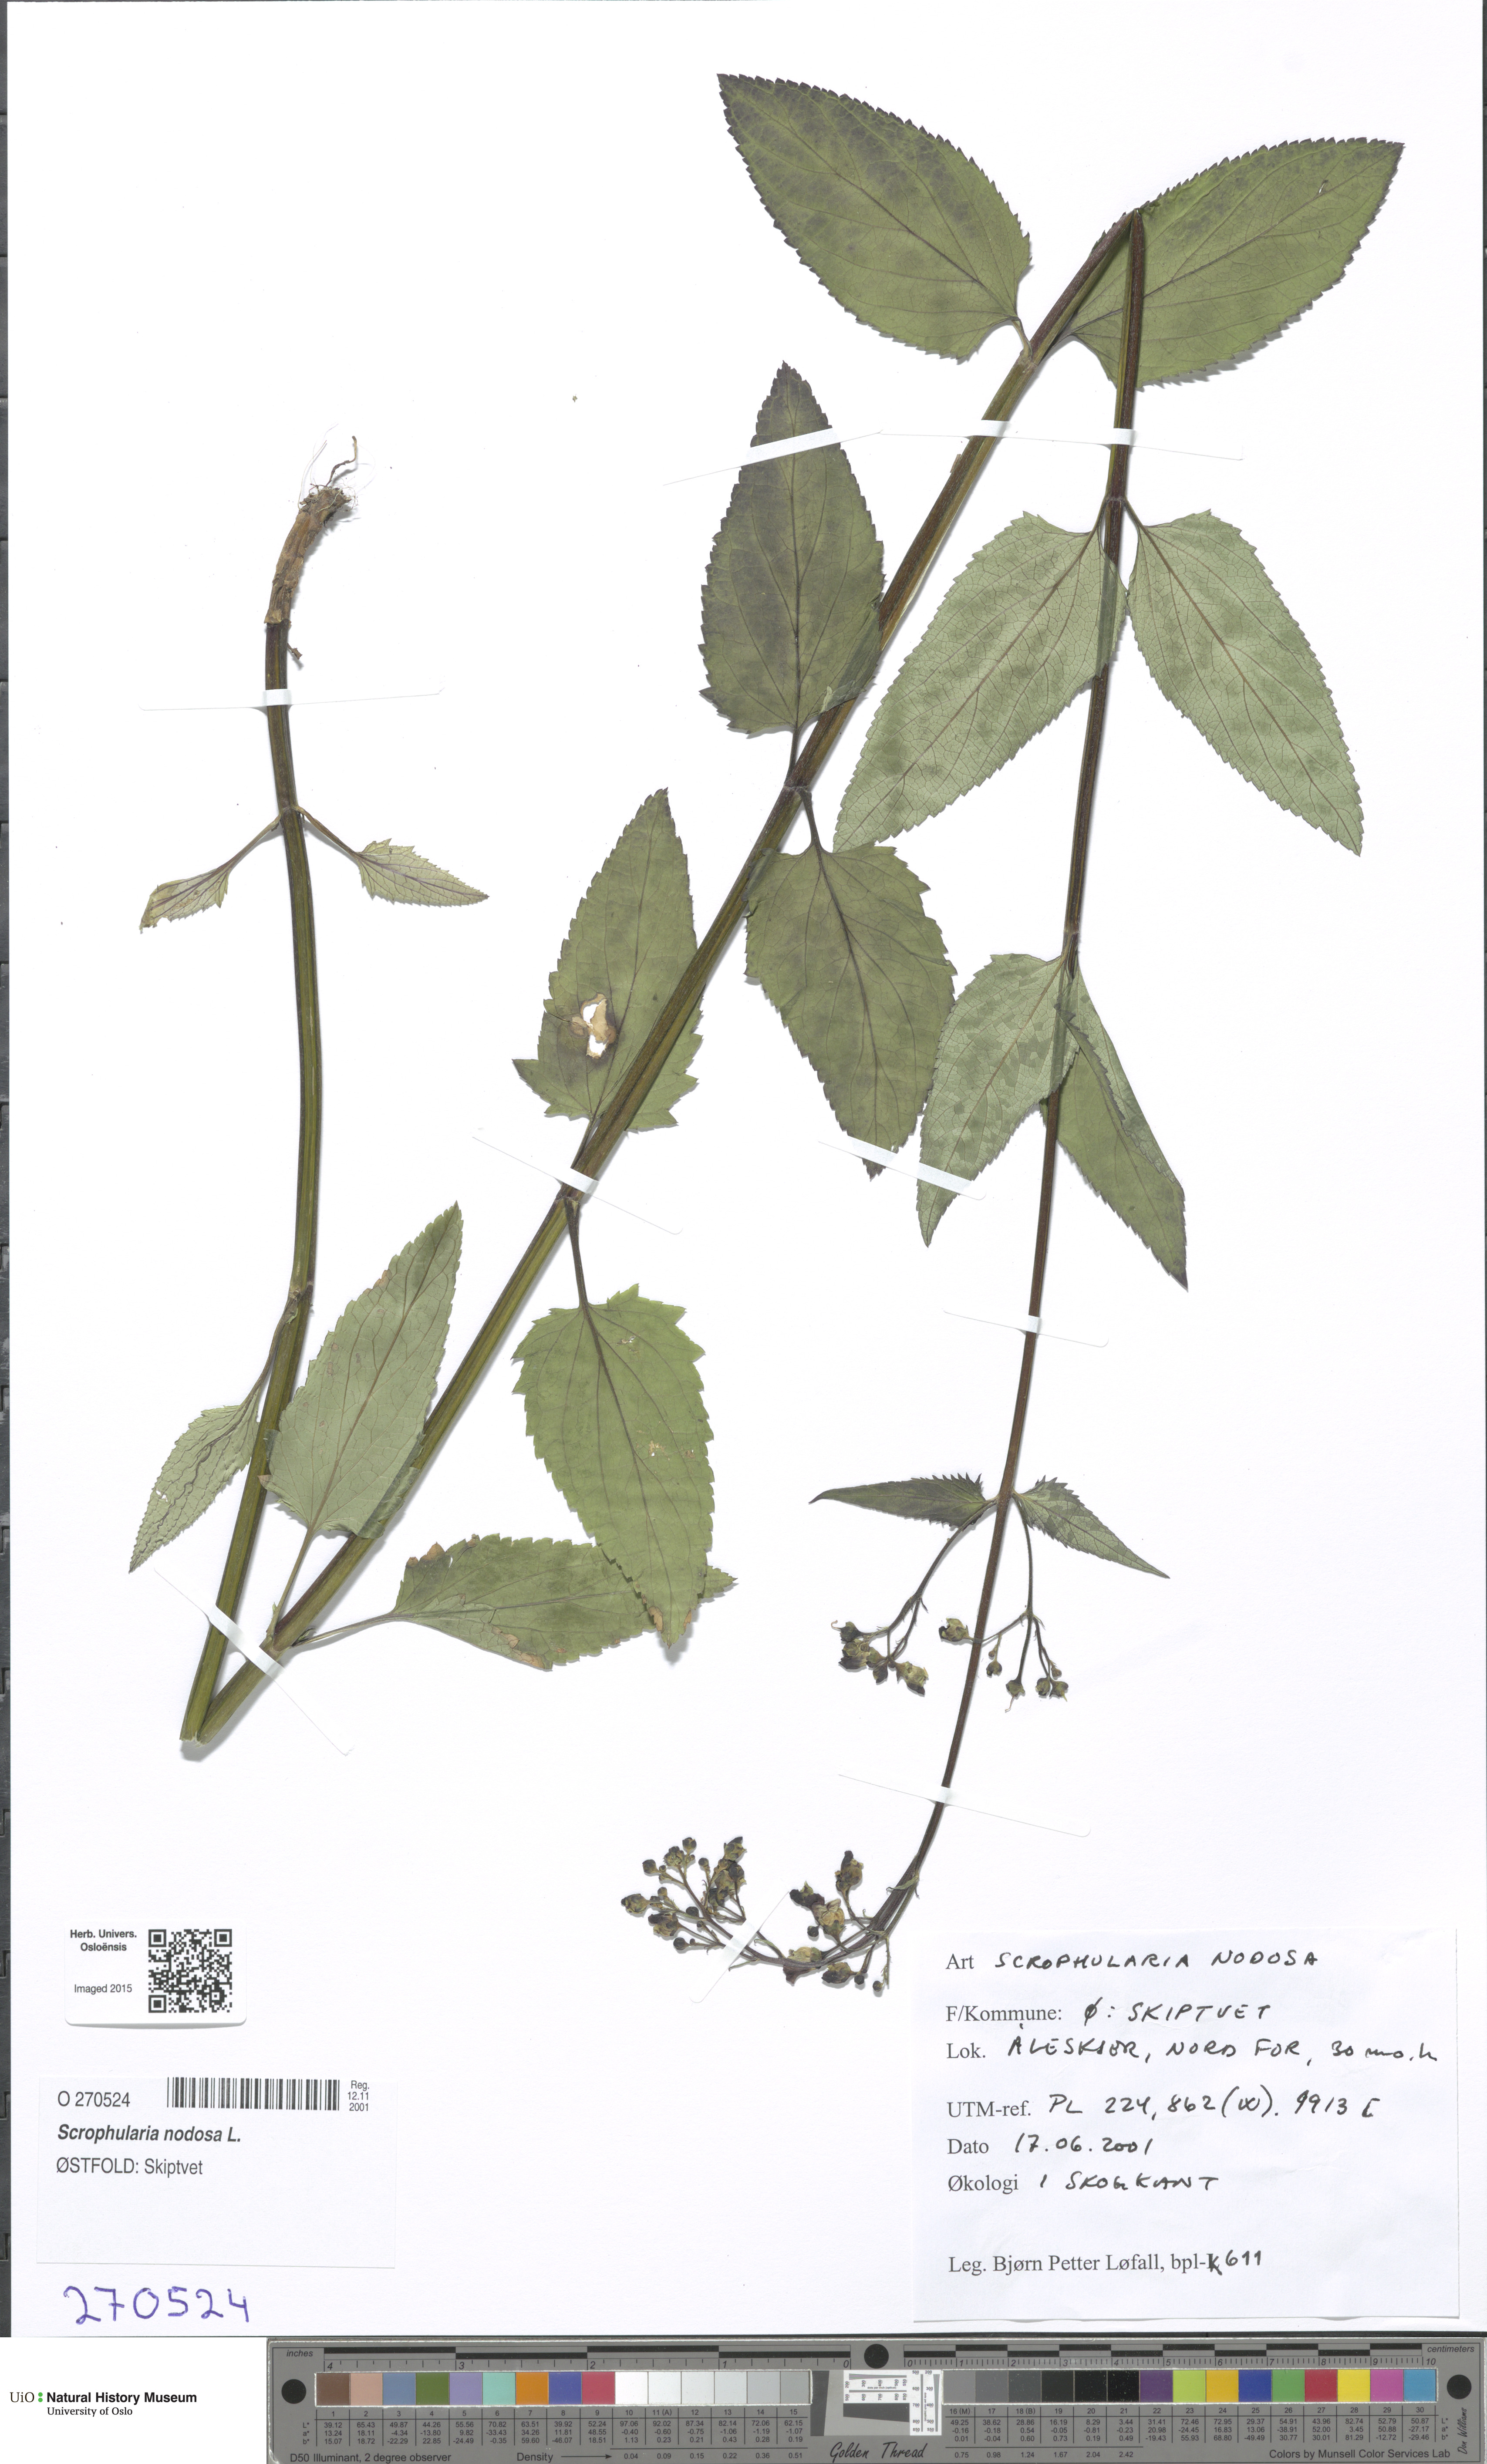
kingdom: Plantae
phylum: Tracheophyta
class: Magnoliopsida
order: Lamiales
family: Scrophulariaceae
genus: Scrophularia
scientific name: Scrophularia nodosa
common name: Common figwort
